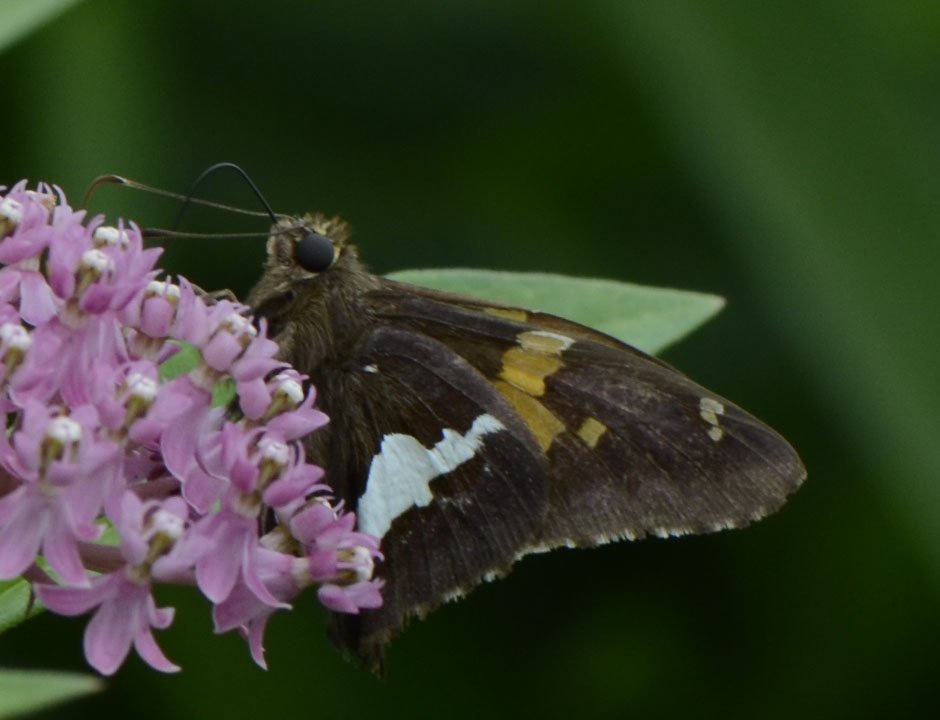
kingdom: Animalia
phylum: Arthropoda
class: Insecta
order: Lepidoptera
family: Hesperiidae
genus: Epargyreus
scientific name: Epargyreus clarus
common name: Silver-spotted Skipper
